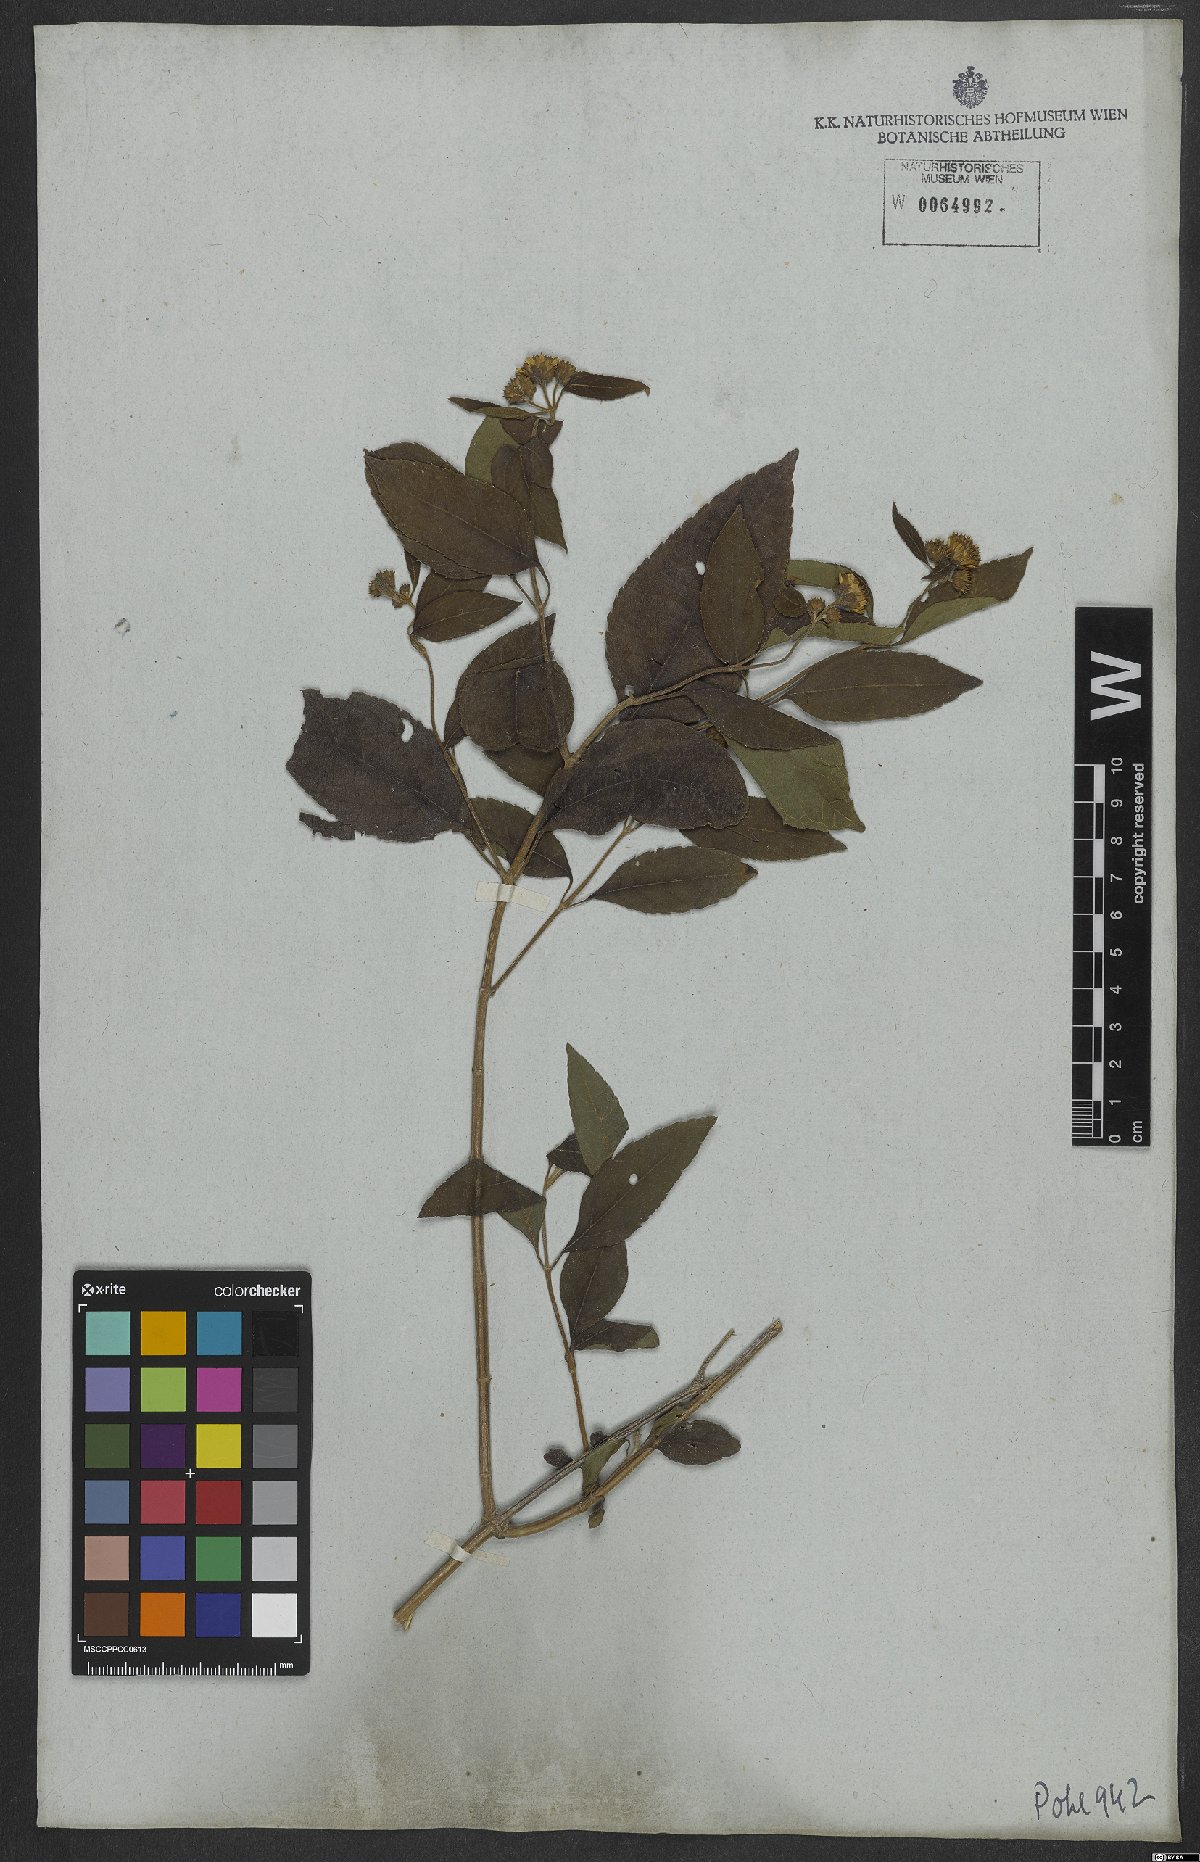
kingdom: Plantae
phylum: Tracheophyta
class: Magnoliopsida
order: Asterales
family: Asteraceae
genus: Tilesia
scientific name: Tilesia baccata
